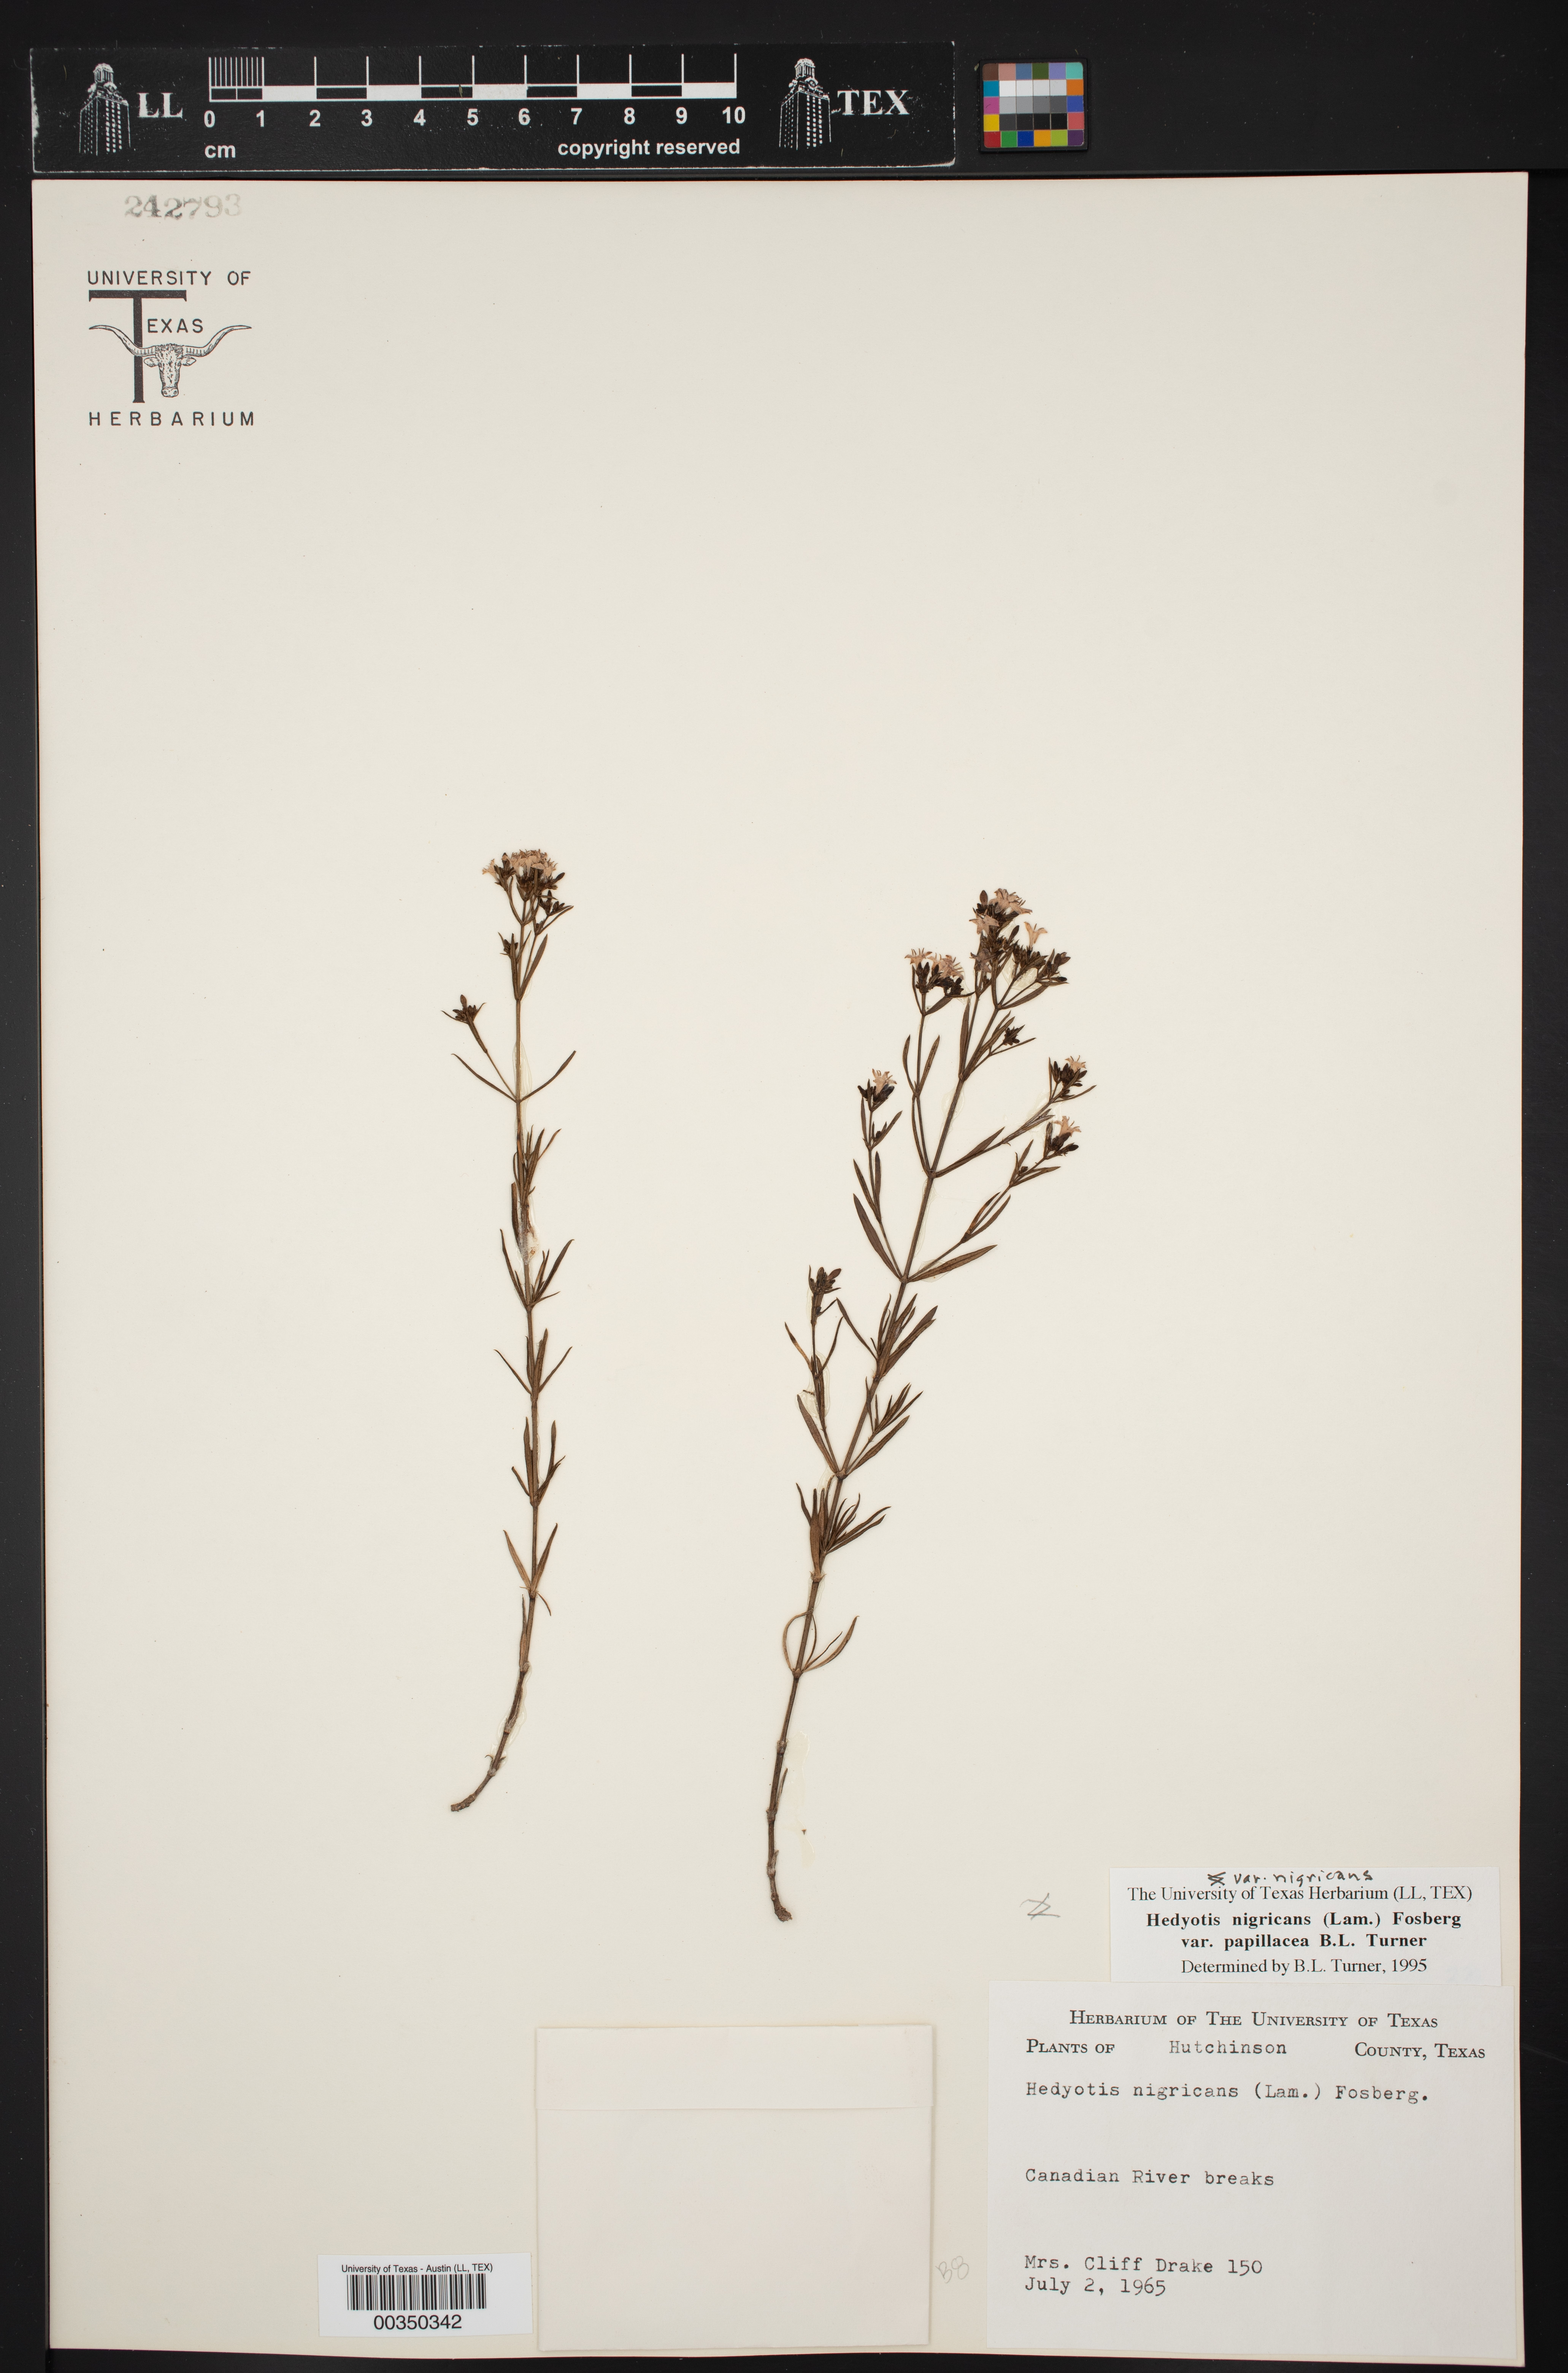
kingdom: Plantae
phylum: Tracheophyta
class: Magnoliopsida
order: Gentianales
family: Rubiaceae
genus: Stenaria
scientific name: Stenaria nigricans
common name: Diamondflowers
